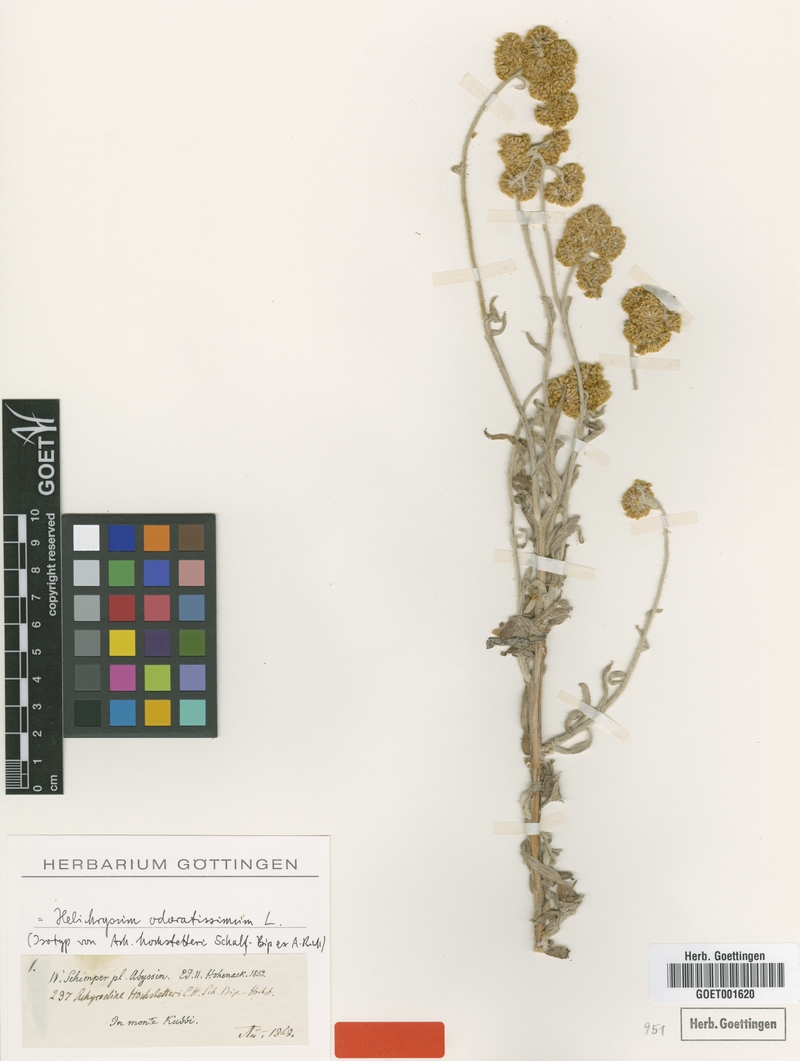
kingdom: Plantae
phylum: Tracheophyta
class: Magnoliopsida
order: Asterales
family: Asteraceae
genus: Helichrysum
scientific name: Helichrysum odoratissimum
